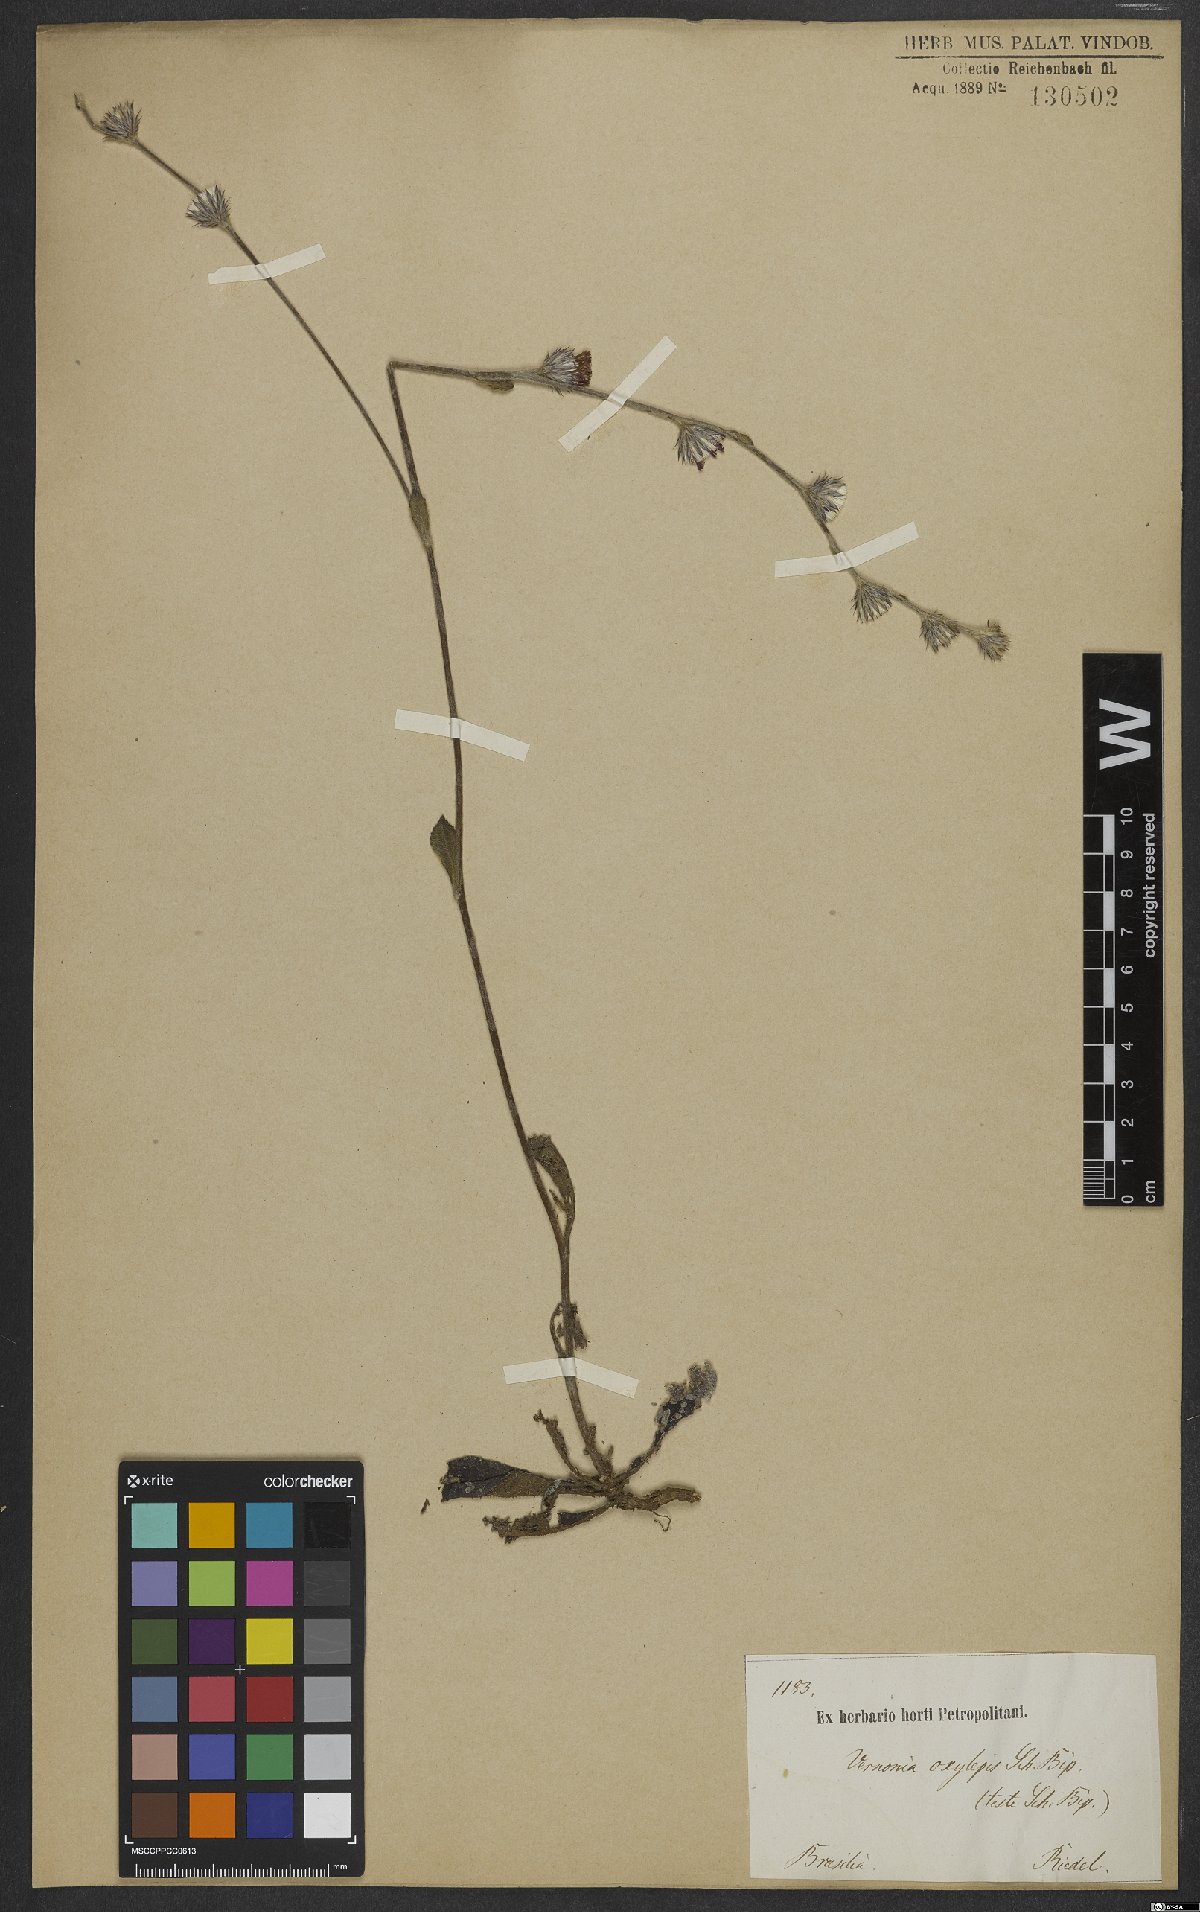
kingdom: Plantae
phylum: Tracheophyta
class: Magnoliopsida
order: Asterales
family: Asteraceae
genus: Lepidaploa
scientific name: Lepidaploa psilostachya
